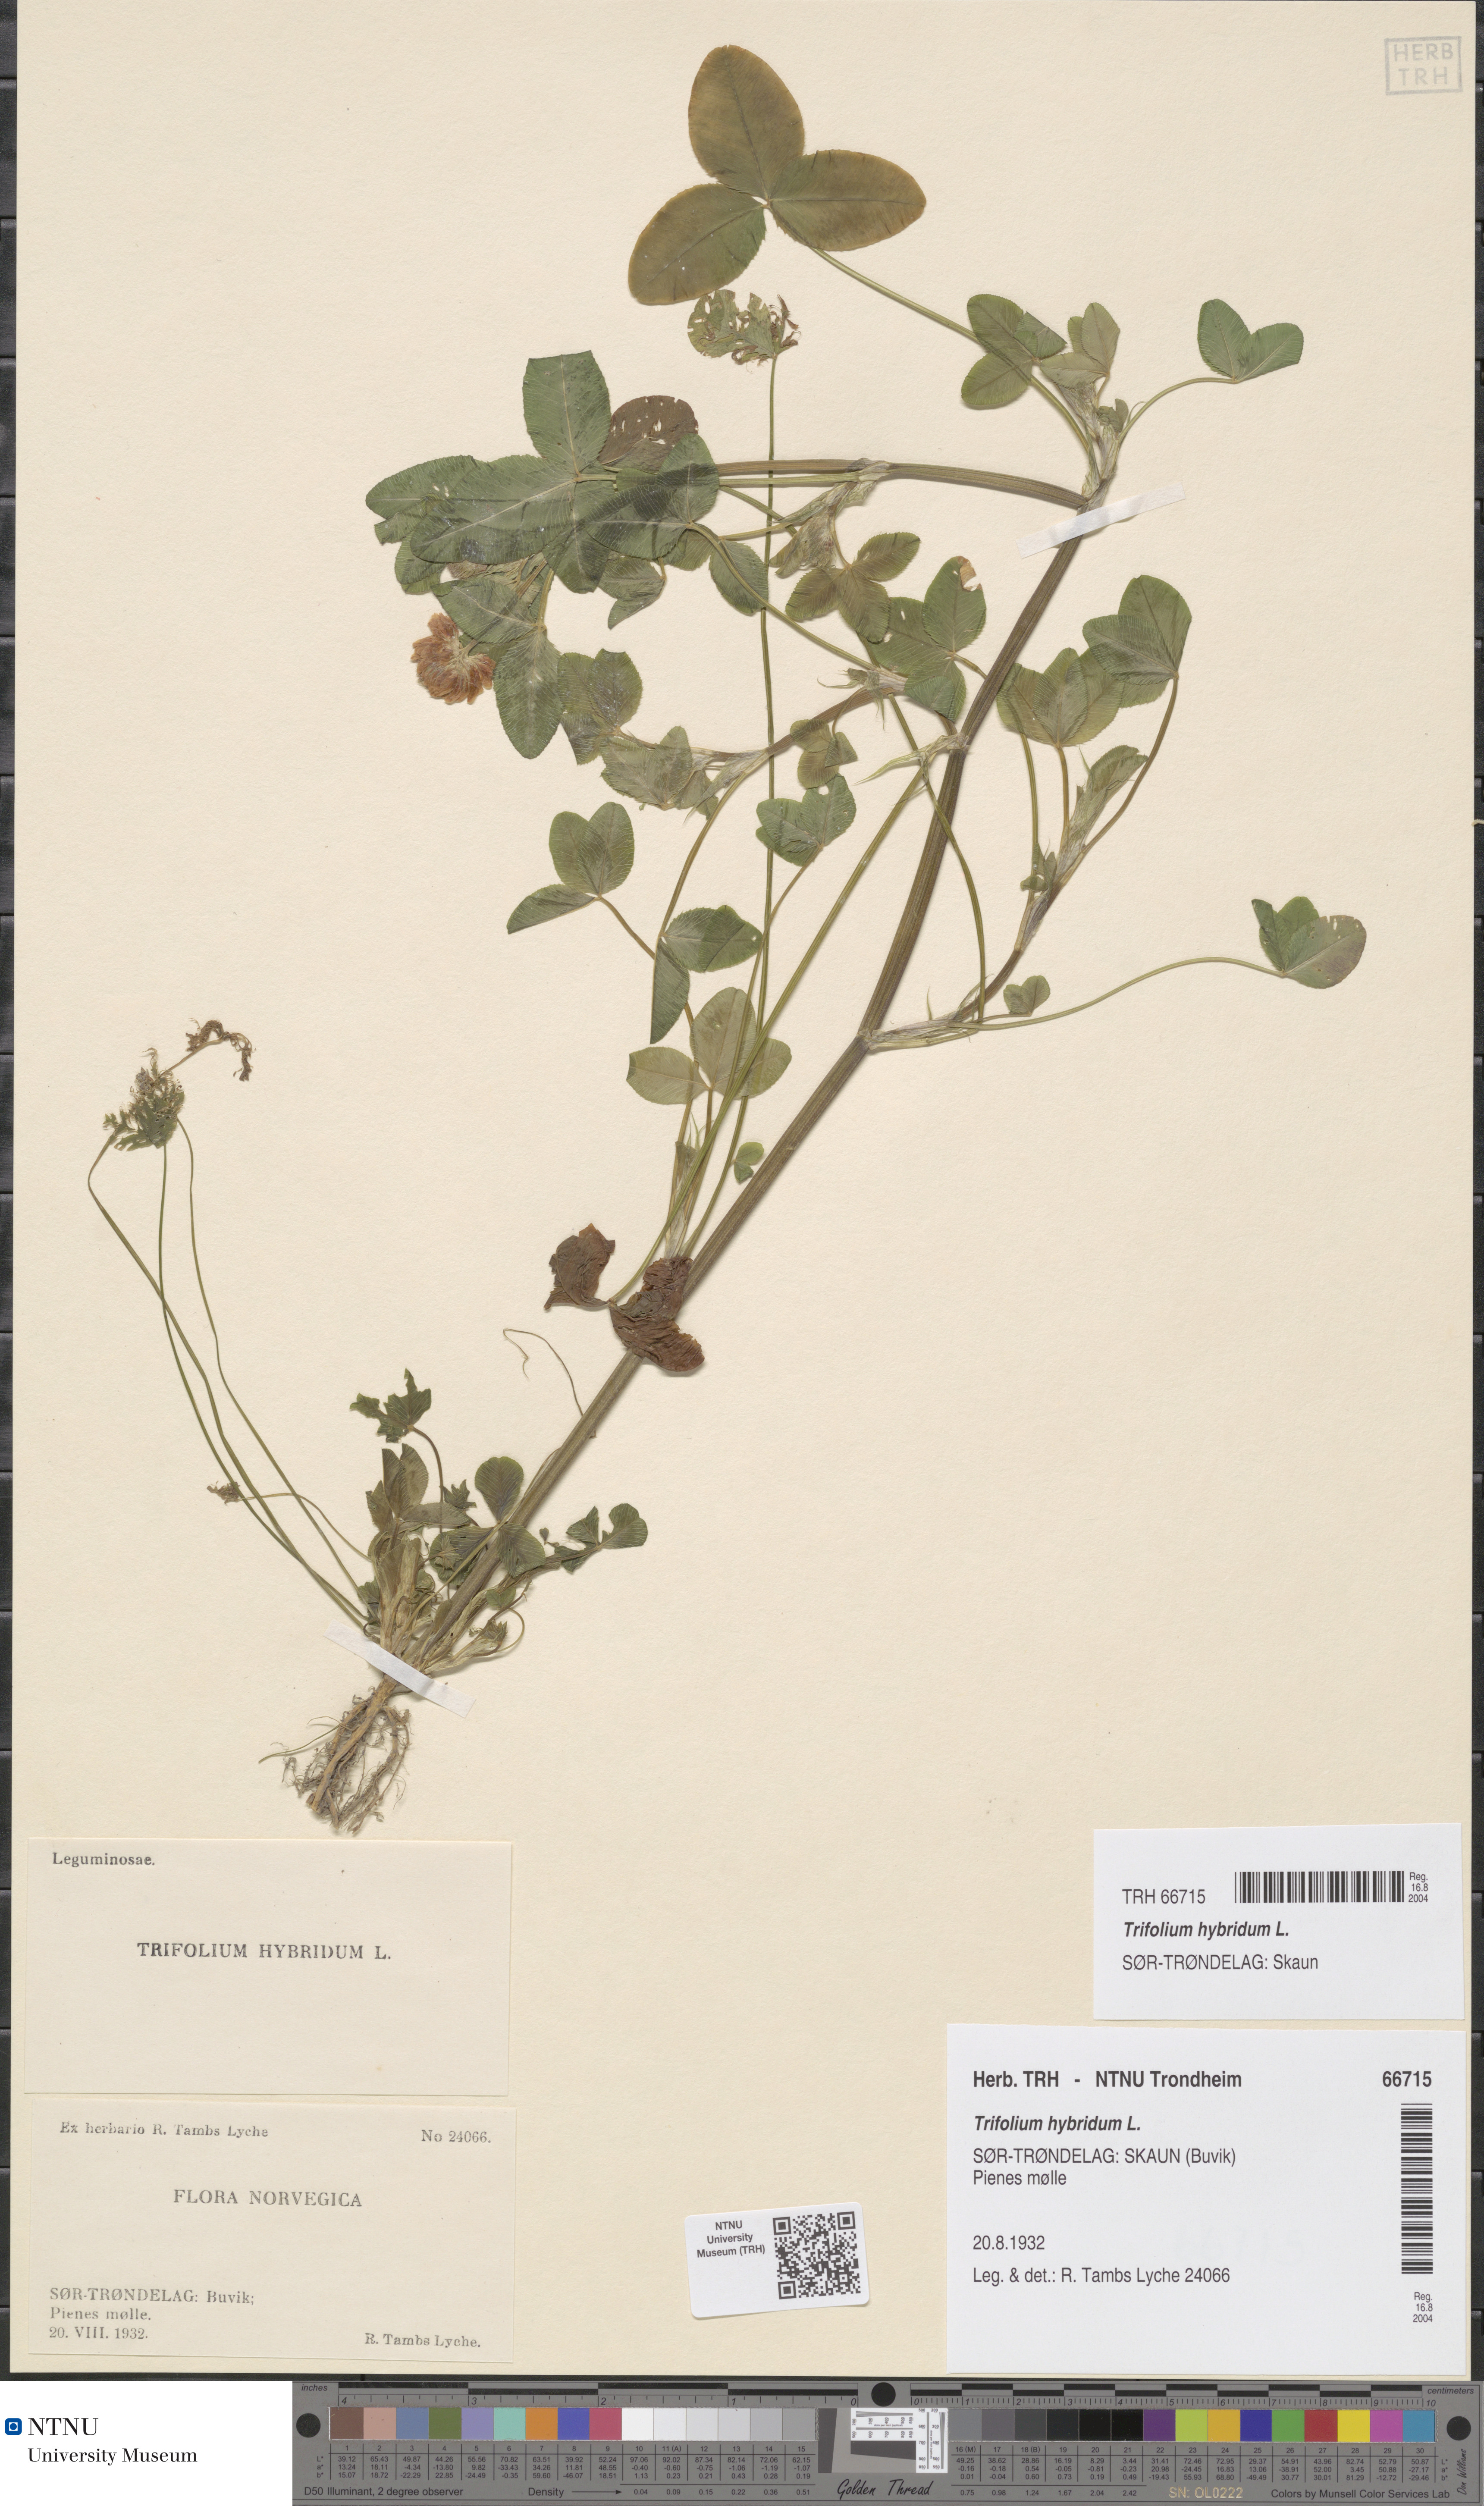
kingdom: Plantae
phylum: Tracheophyta
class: Magnoliopsida
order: Fabales
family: Fabaceae
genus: Trifolium
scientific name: Trifolium hybridum
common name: Alsike clover
